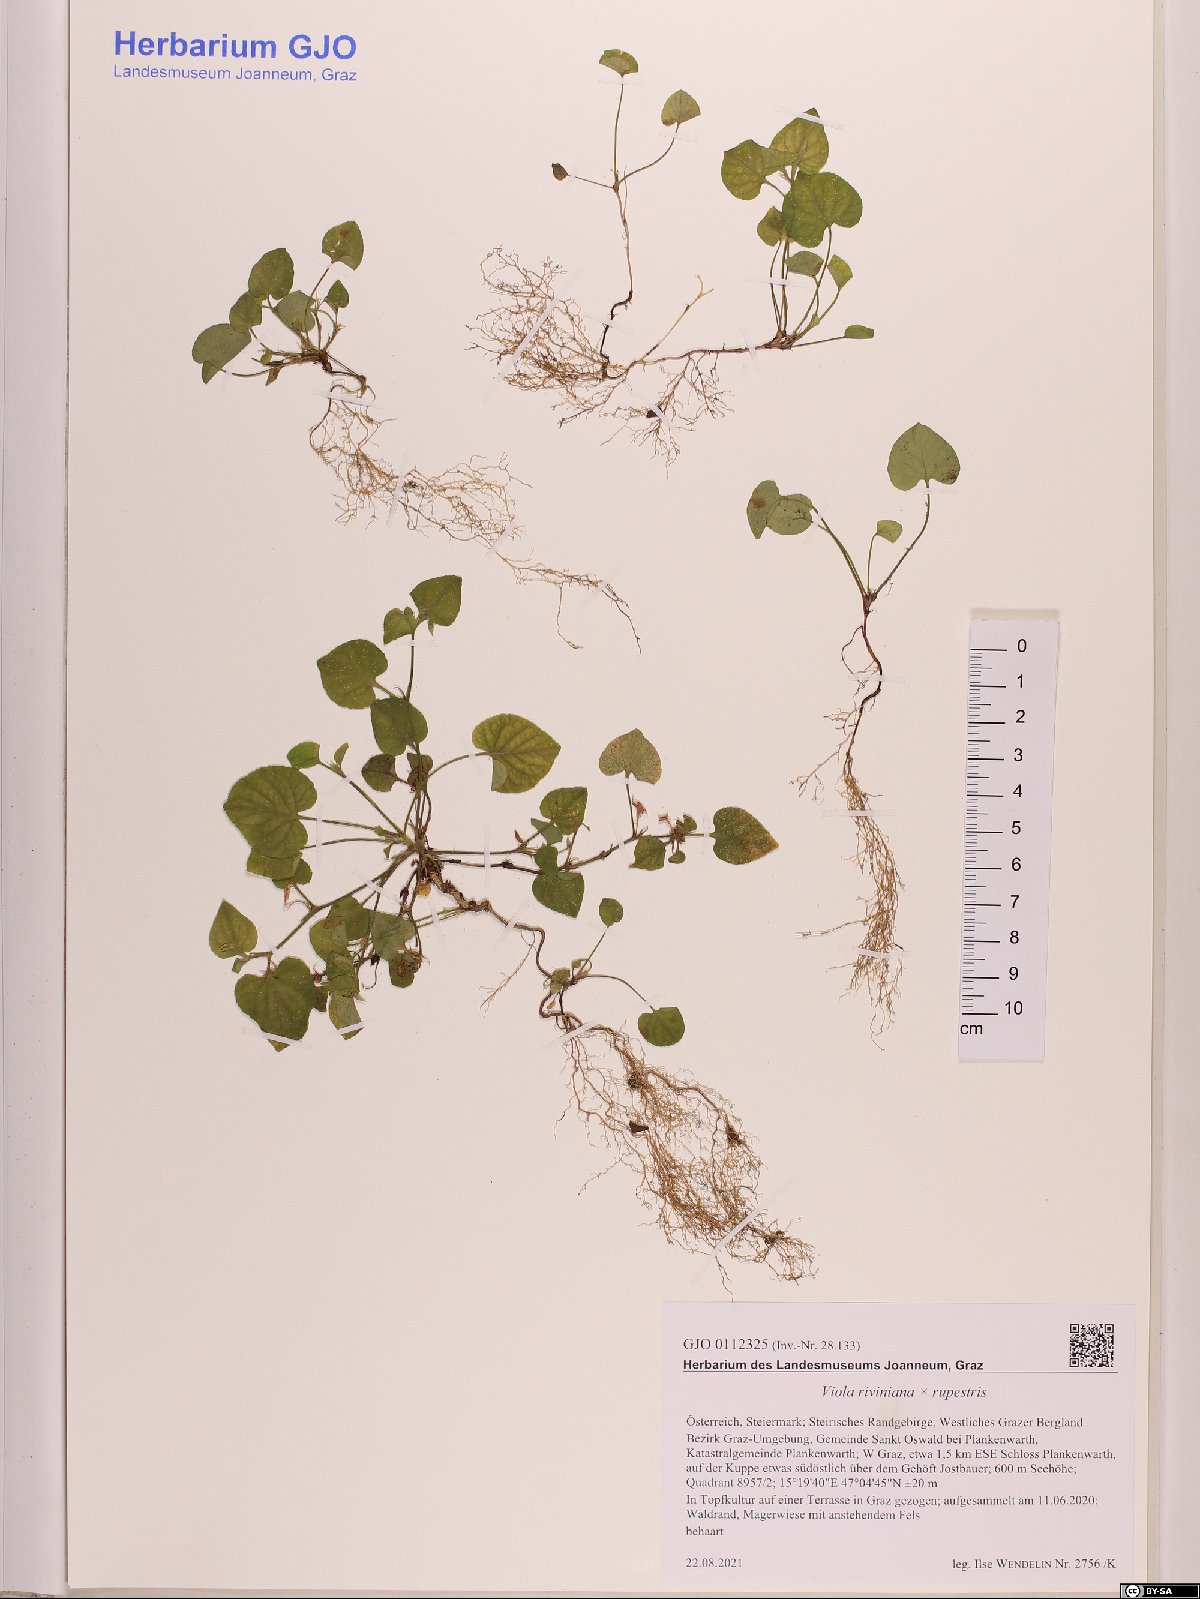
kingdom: Plantae
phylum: Tracheophyta
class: Magnoliopsida
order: Malpighiales
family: Violaceae
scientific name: Violaceae
